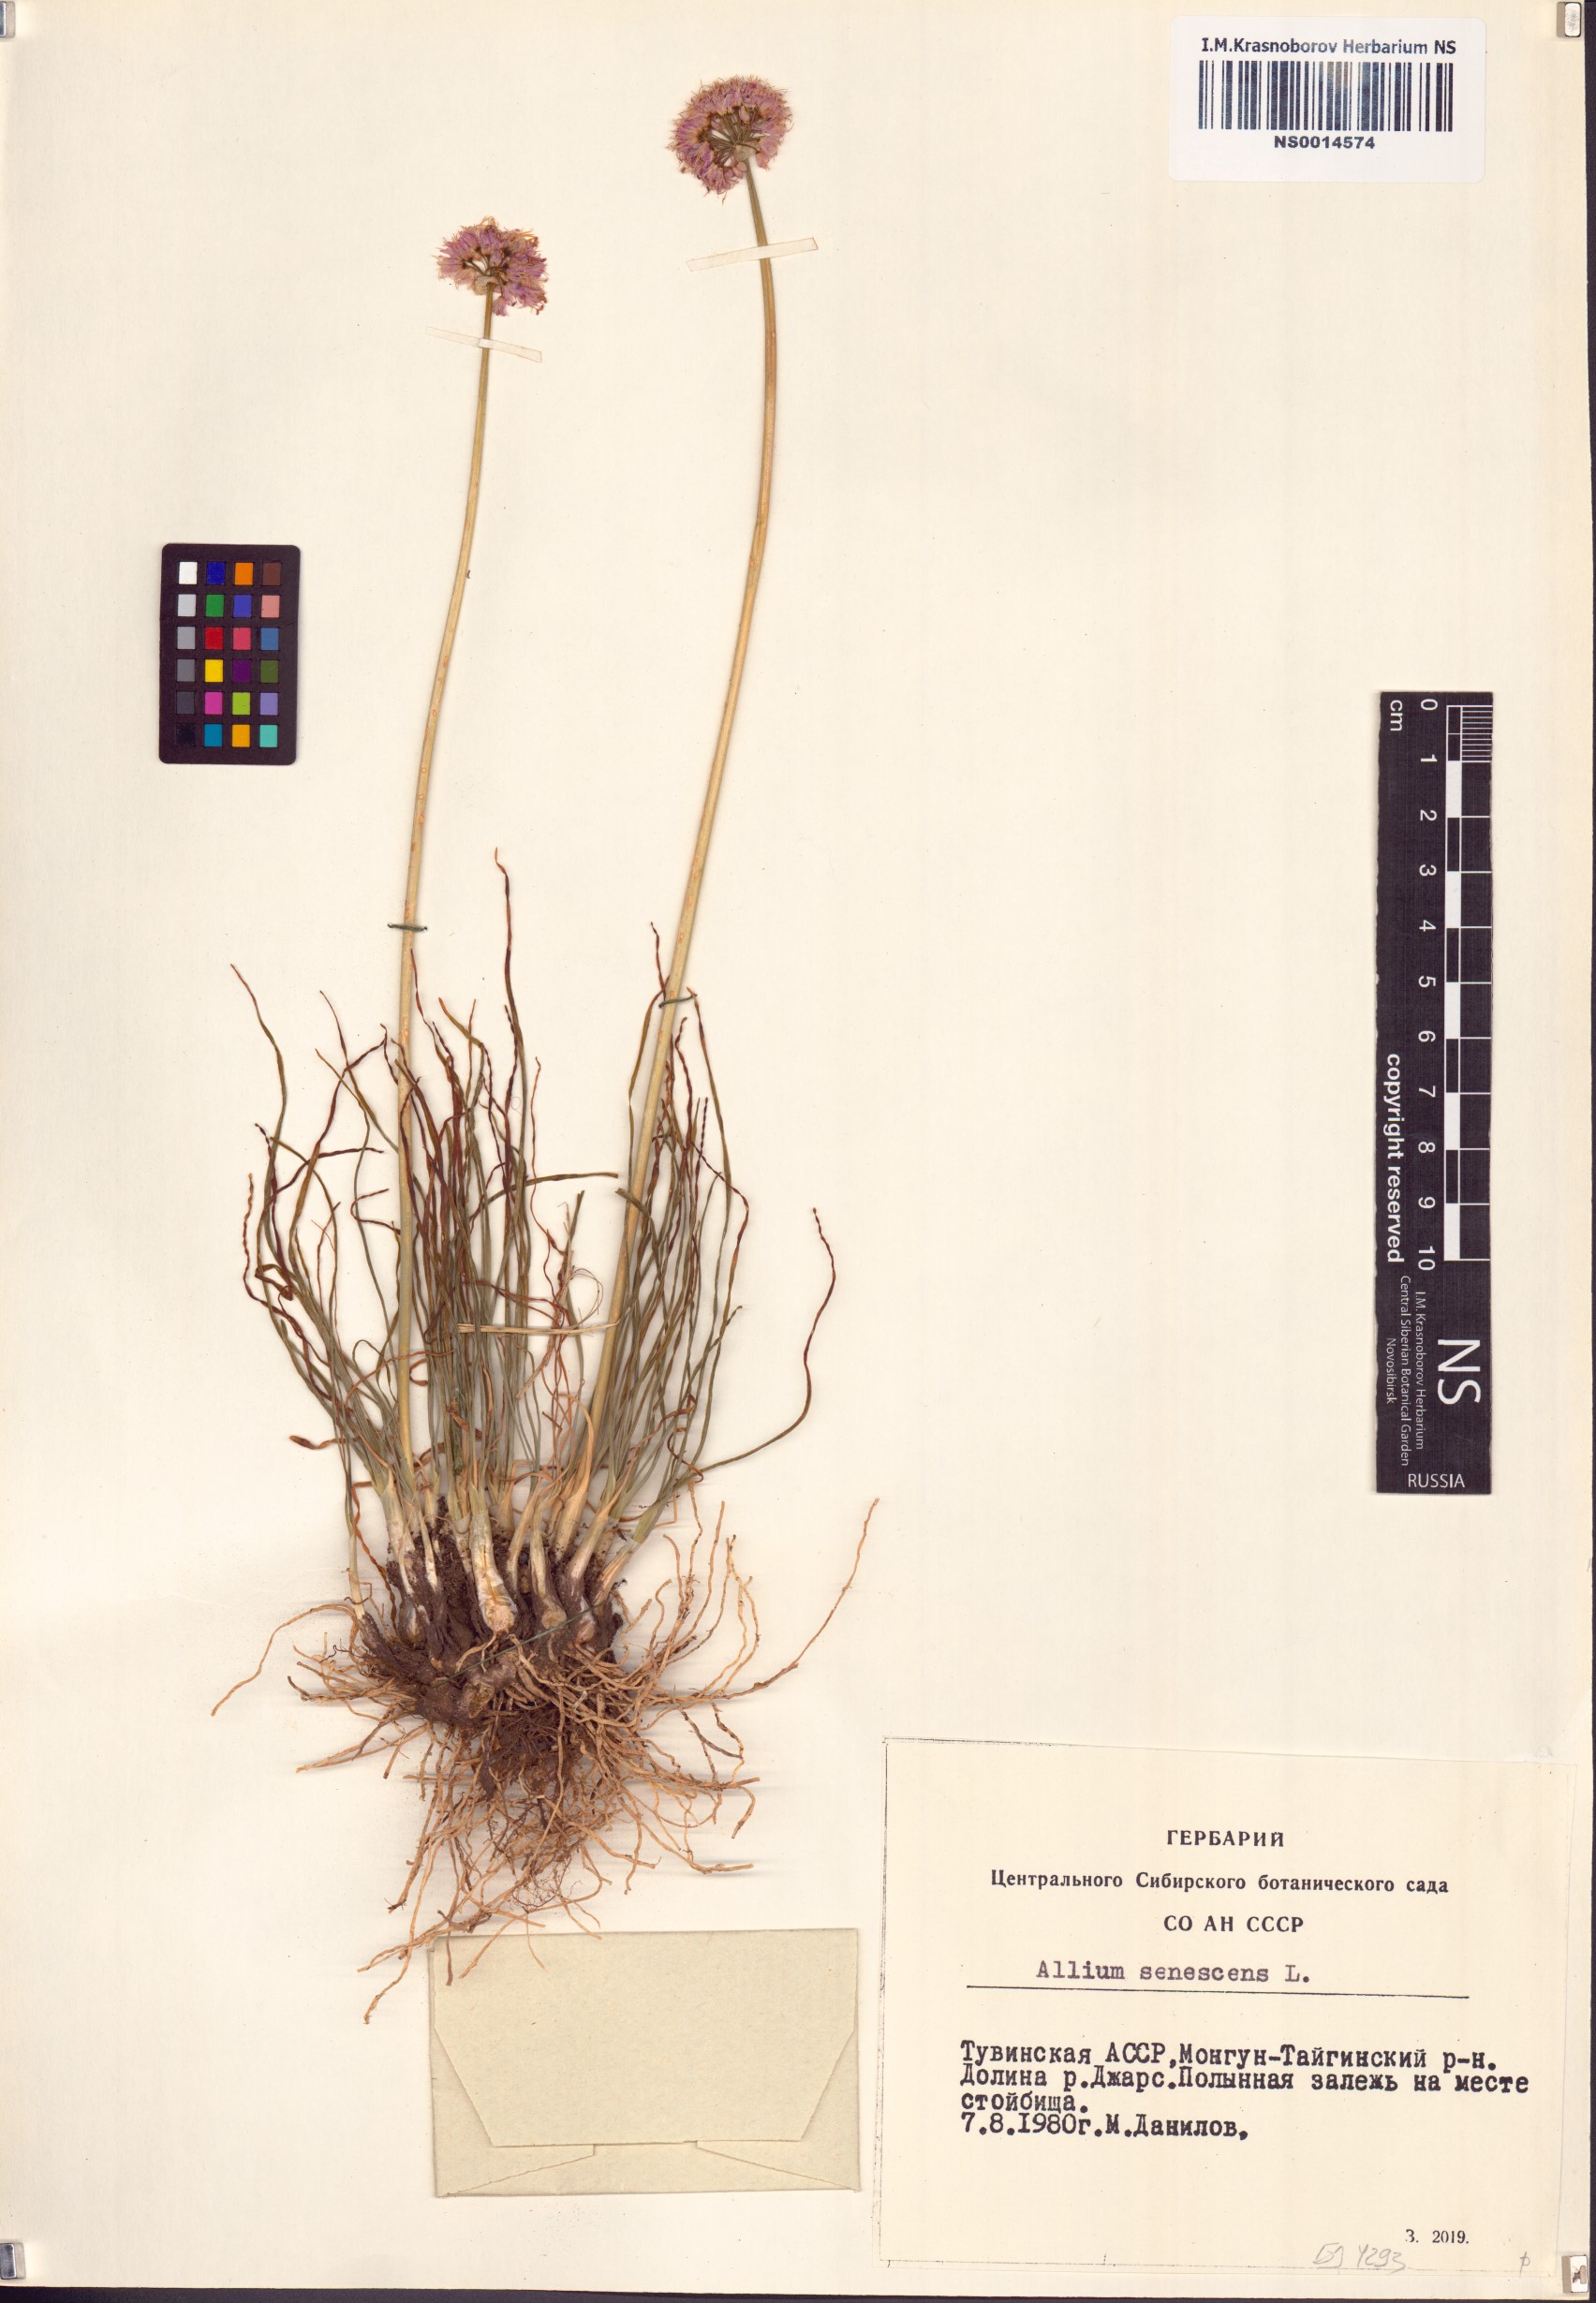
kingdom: Plantae
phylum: Tracheophyta
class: Liliopsida
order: Asparagales
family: Amaryllidaceae
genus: Allium
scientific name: Allium senescens
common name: German garlic
